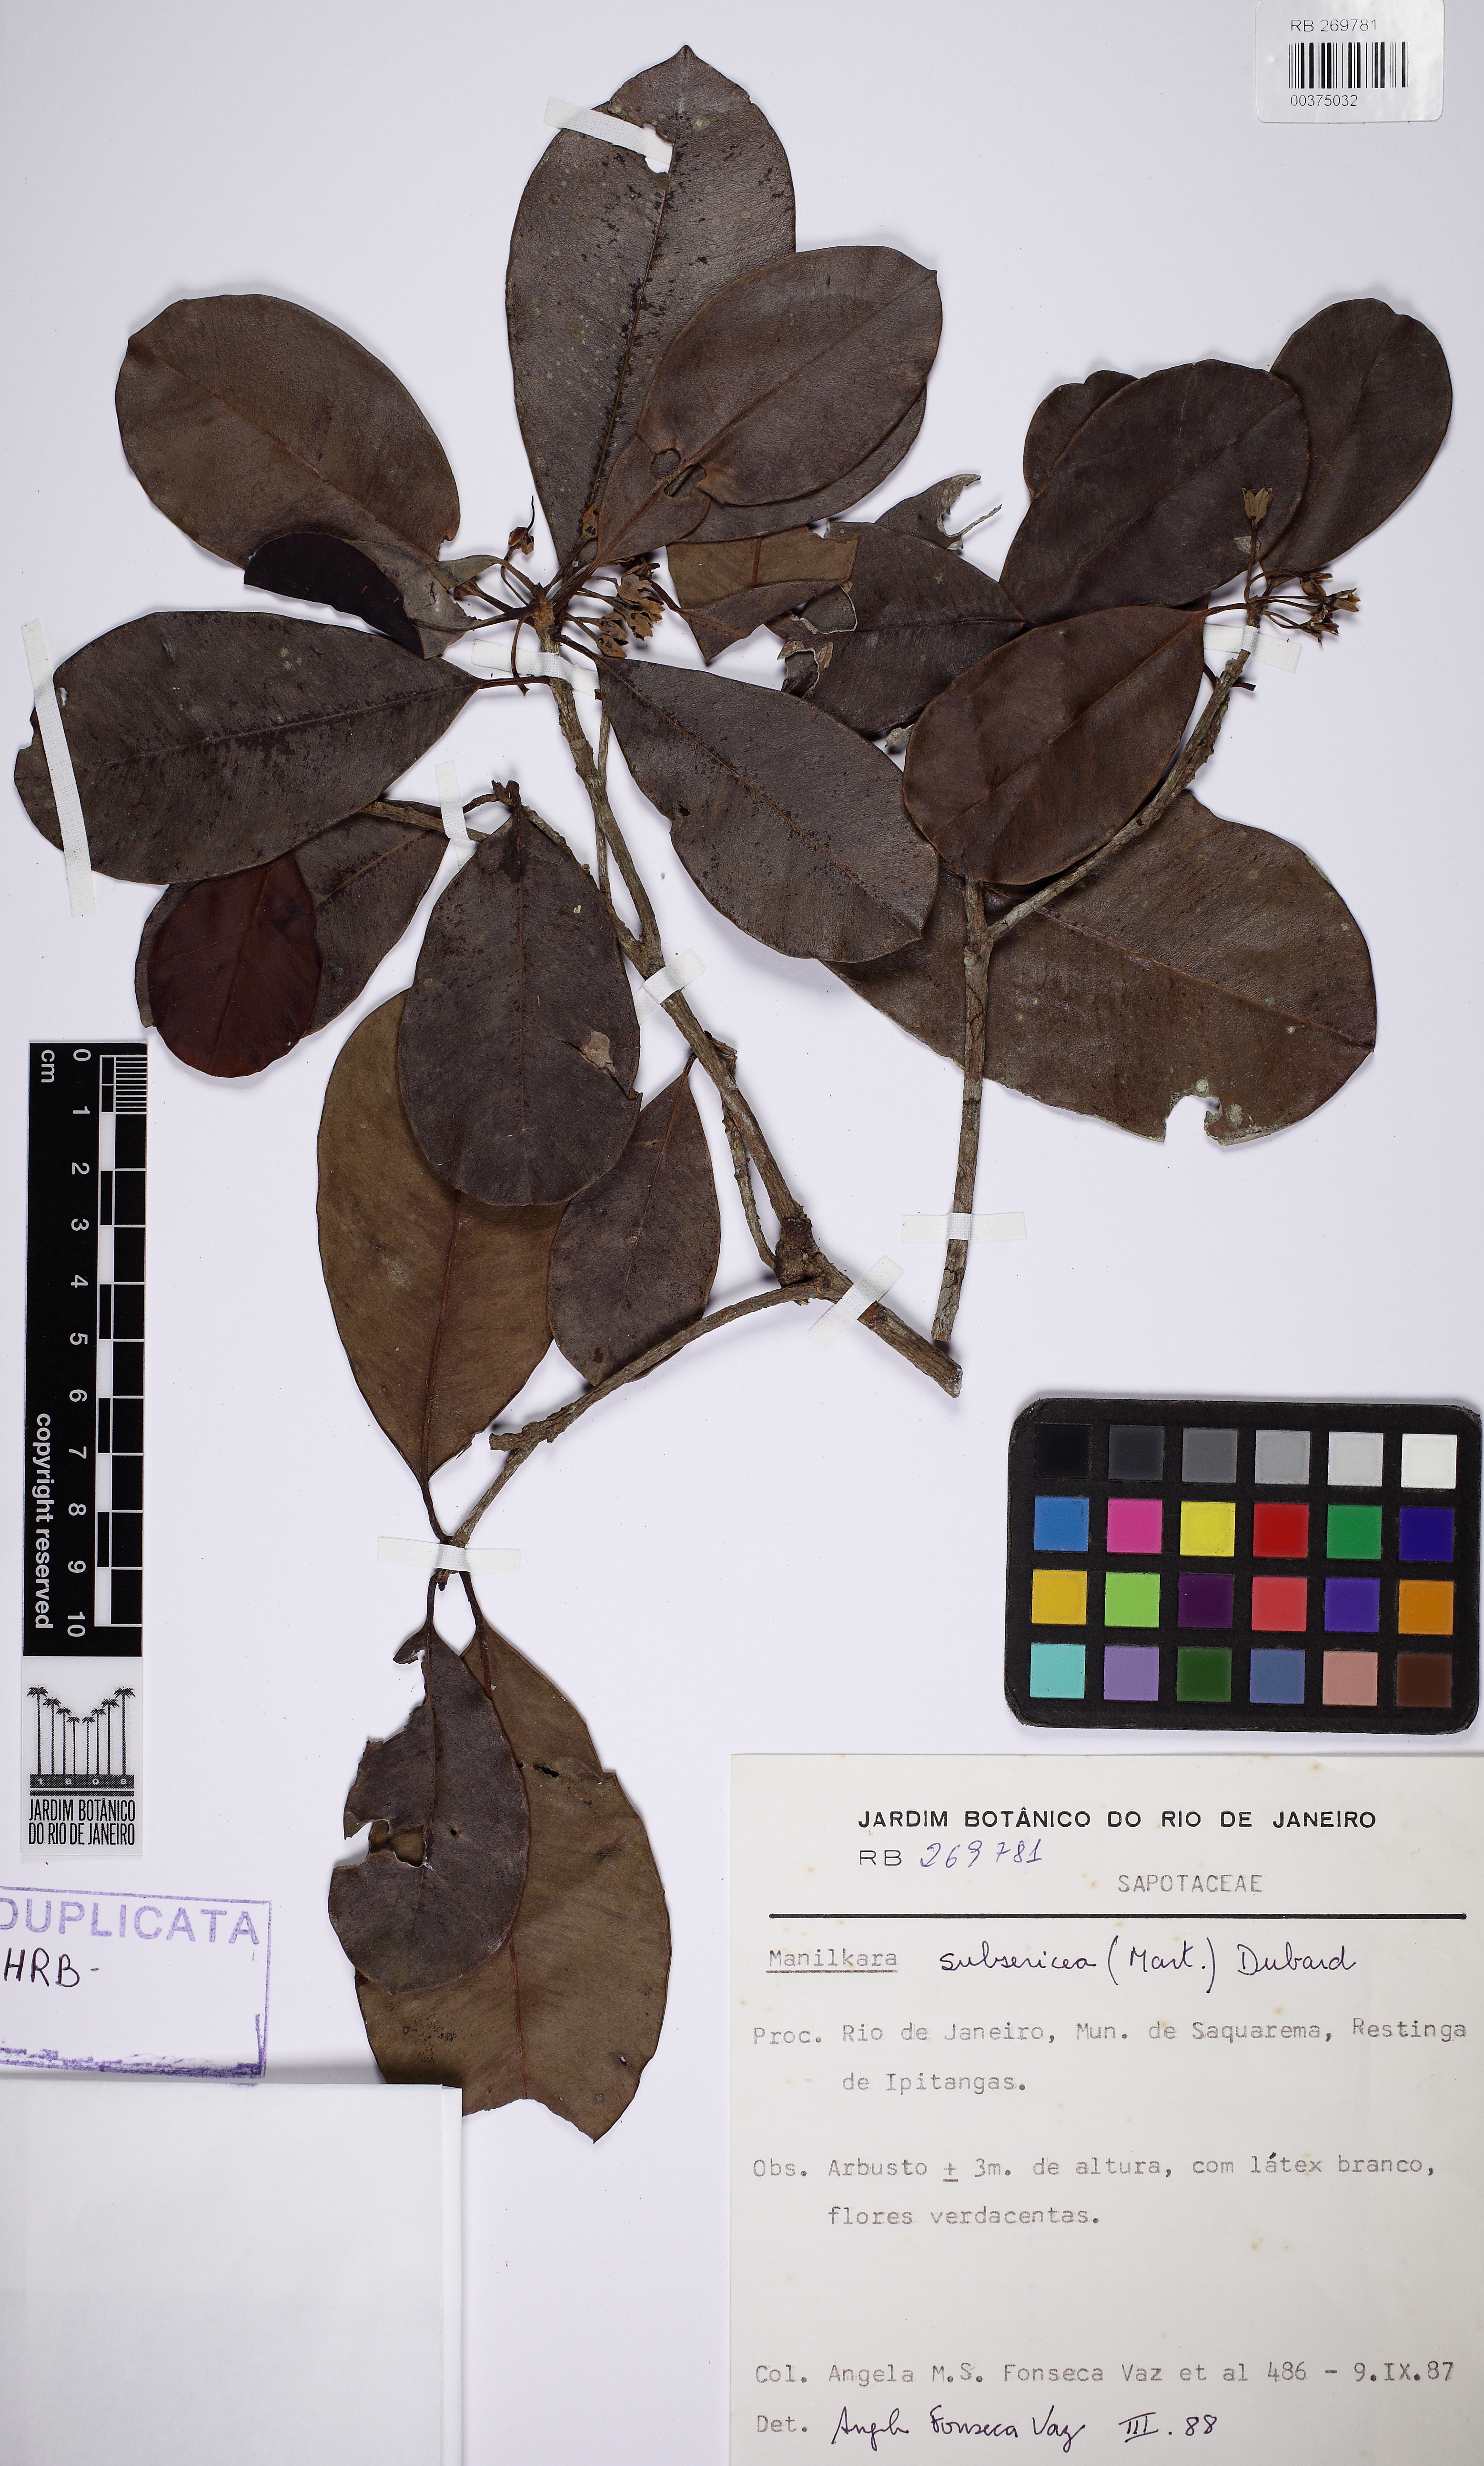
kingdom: Plantae
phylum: Tracheophyta
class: Magnoliopsida
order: Ericales
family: Sapotaceae
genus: Manilkara
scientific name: Manilkara subsericea
